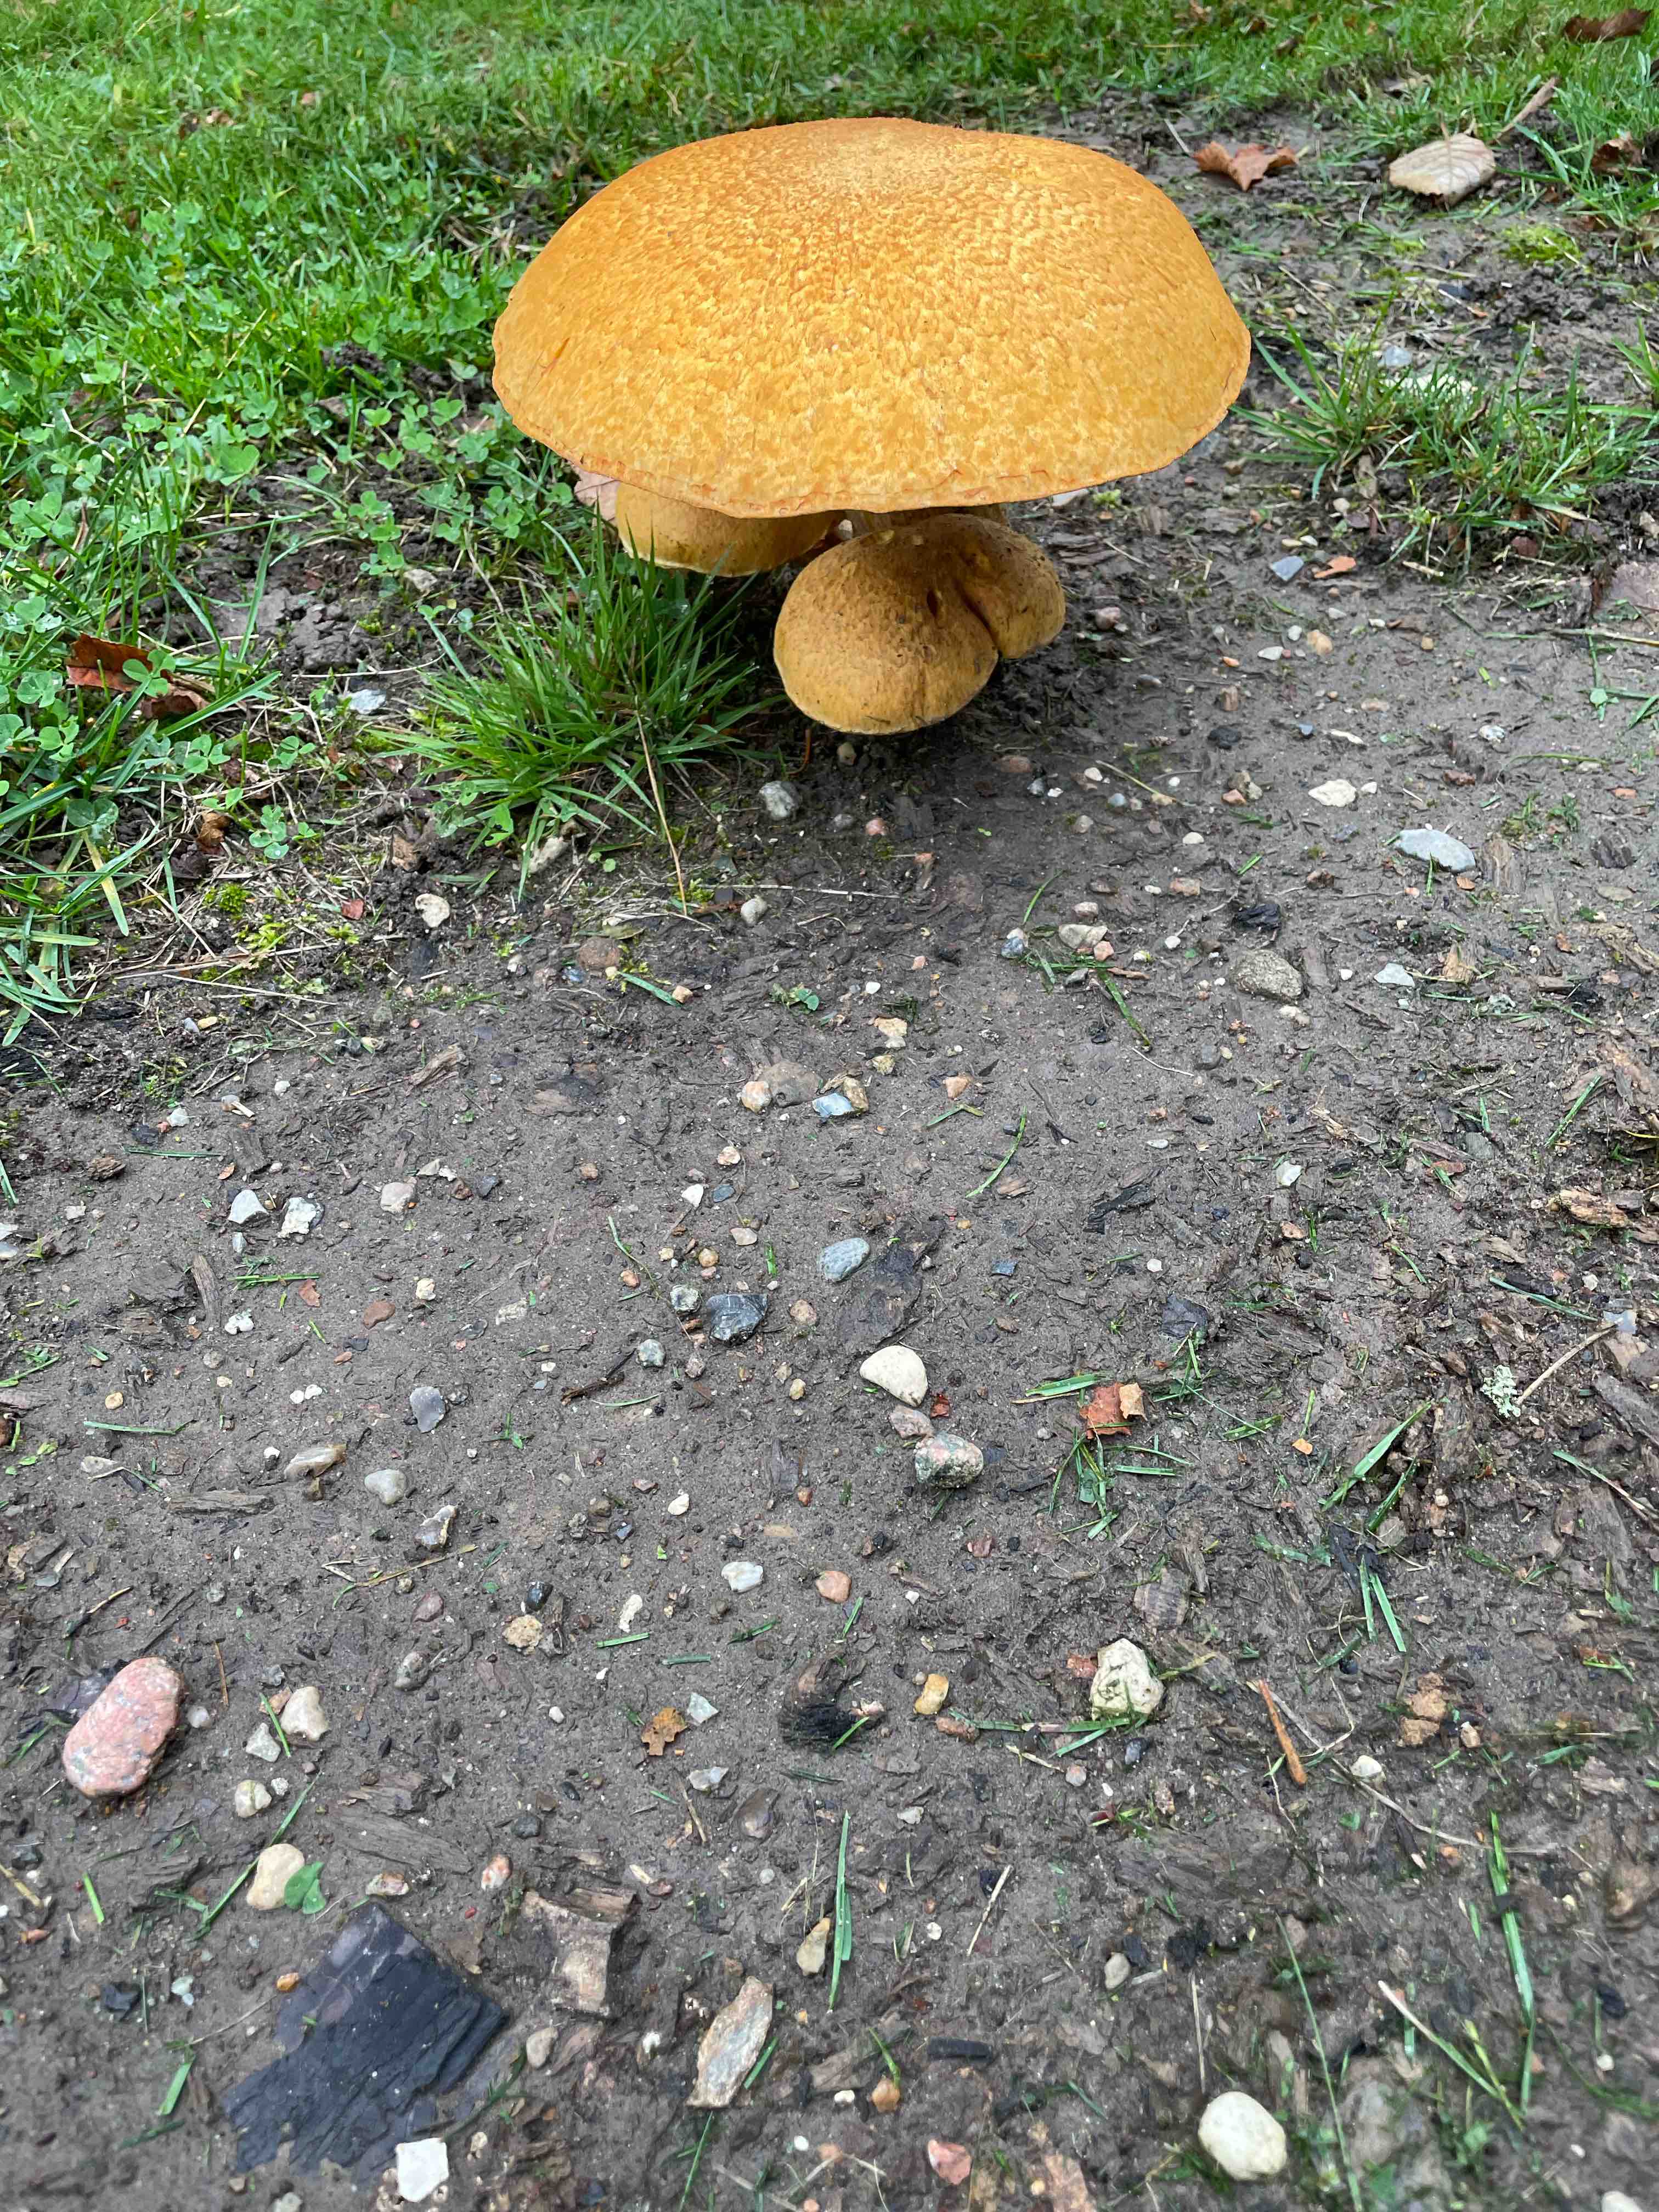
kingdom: Fungi
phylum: Basidiomycota
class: Agaricomycetes
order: Agaricales
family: Hymenogastraceae
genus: Gymnopilus
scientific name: Gymnopilus spectabilis
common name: fibret flammehat
